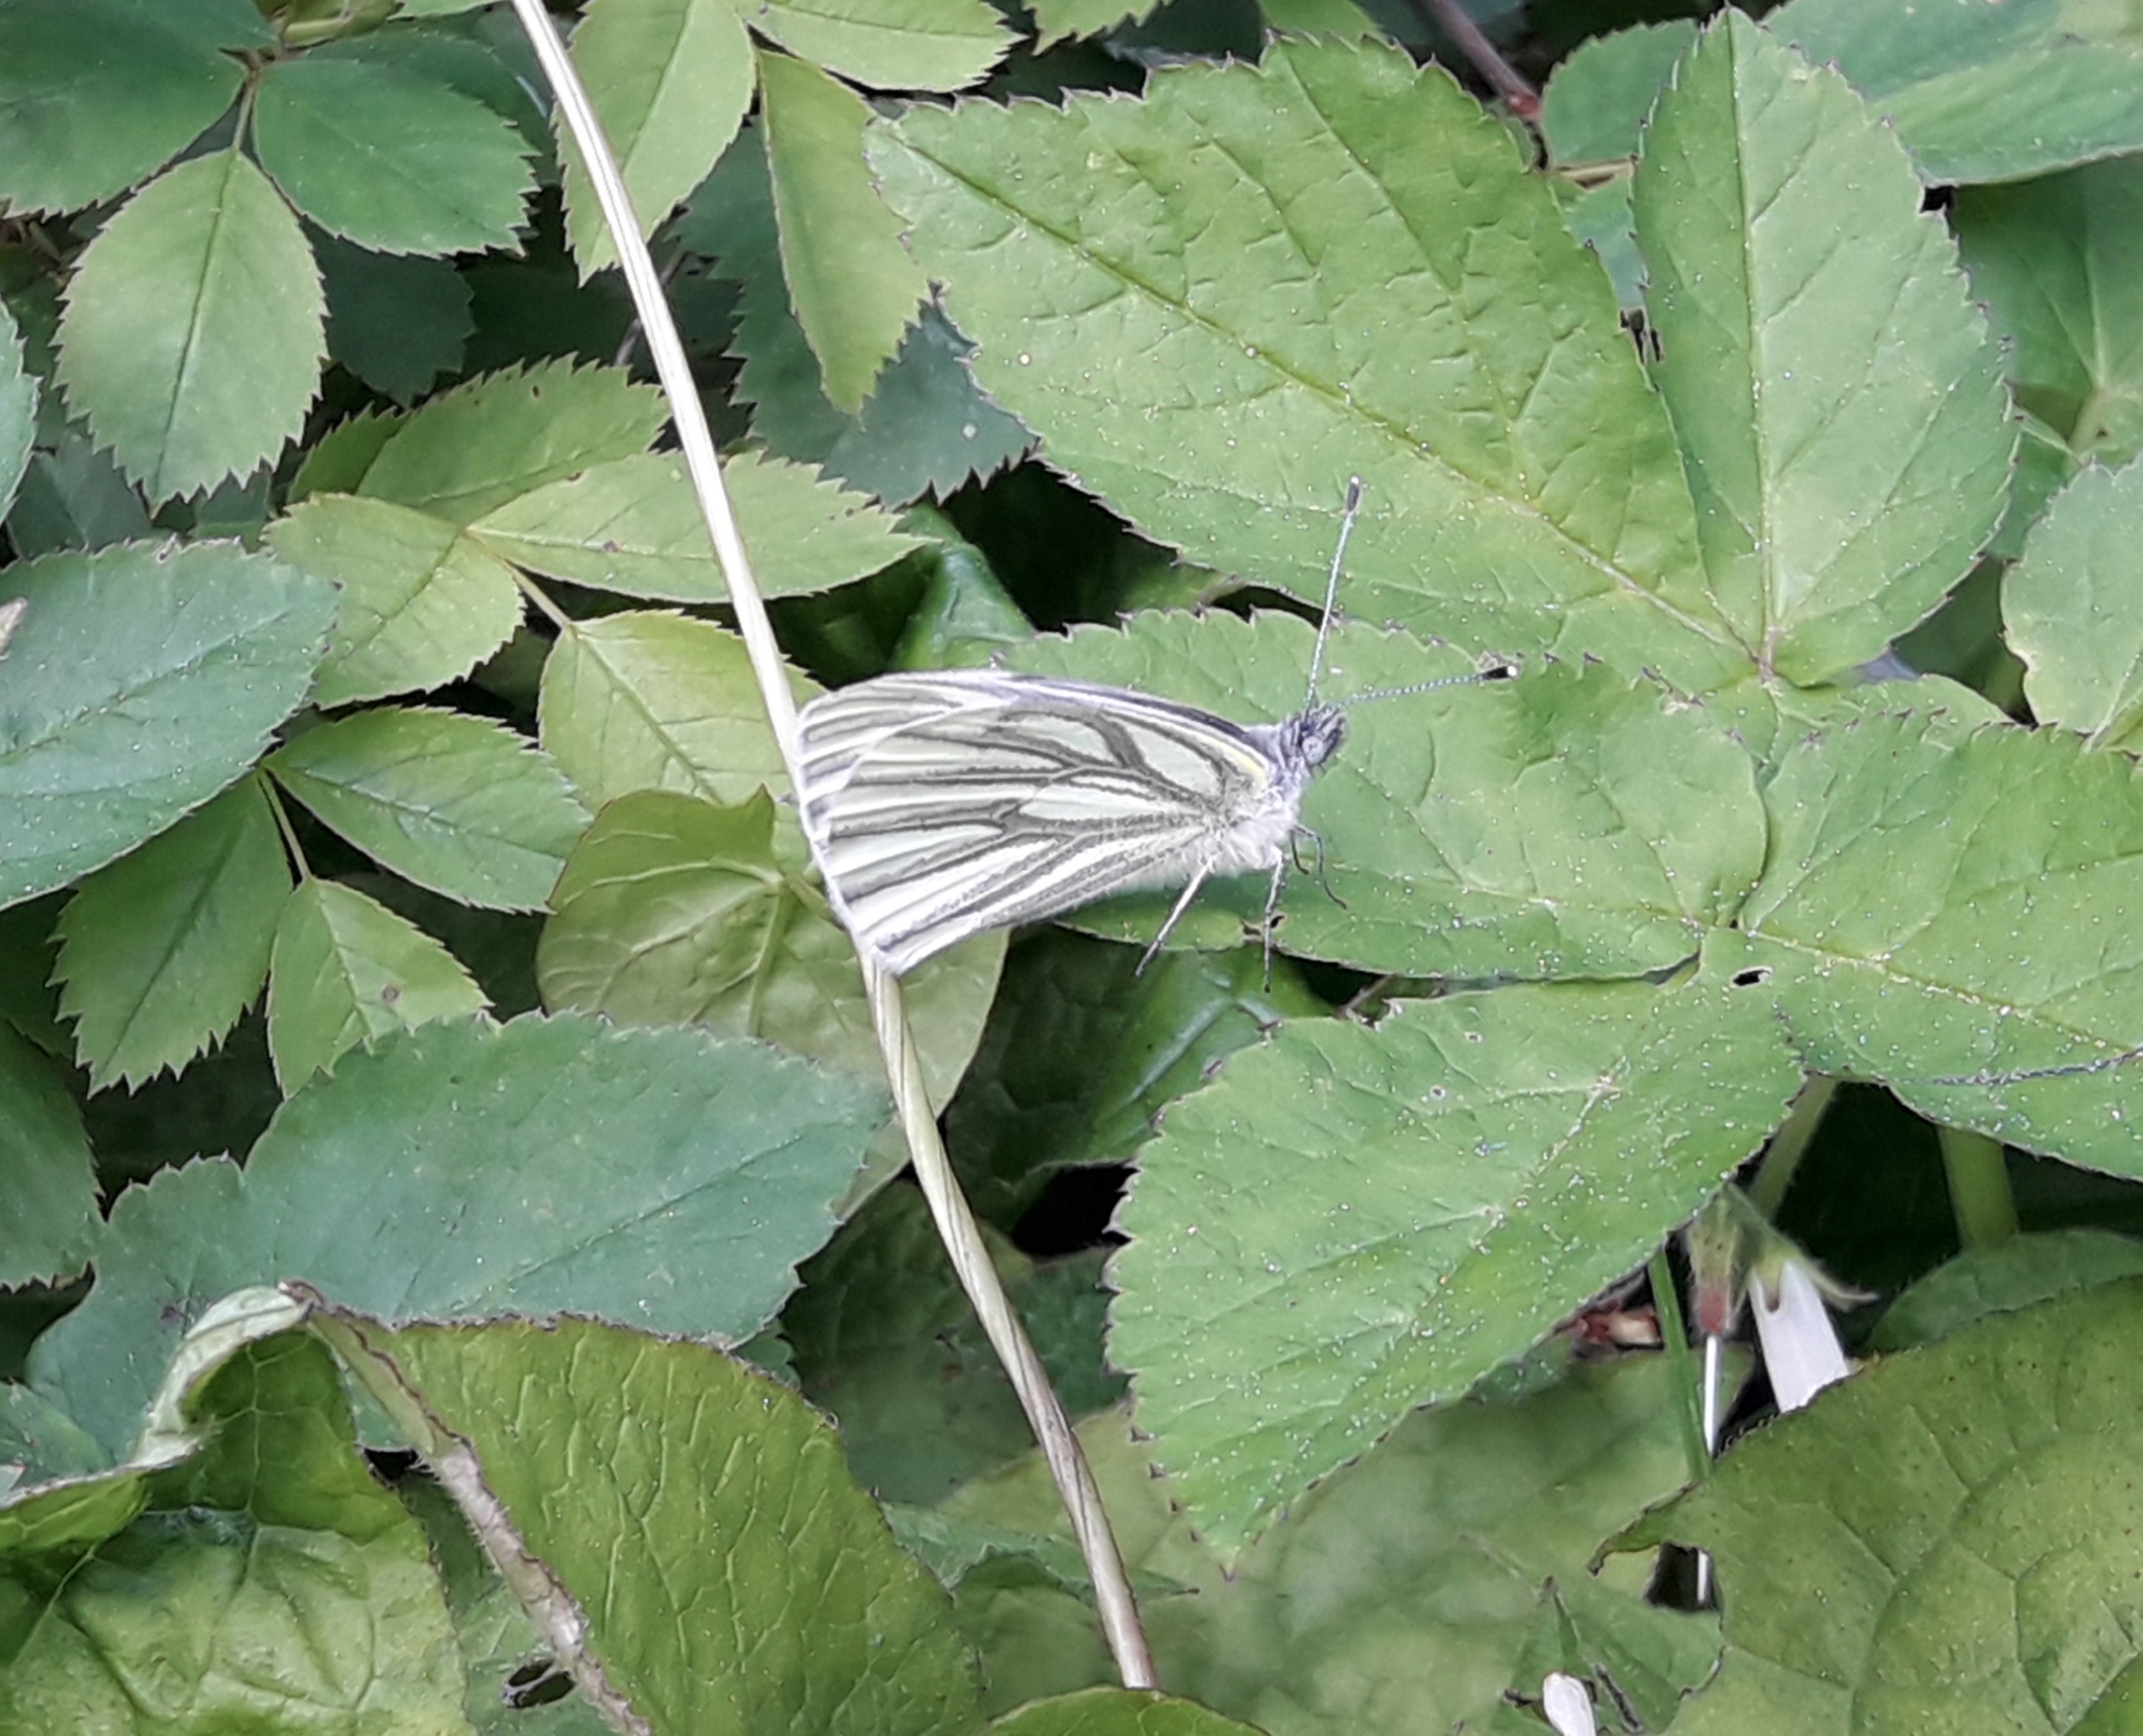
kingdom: Animalia
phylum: Arthropoda
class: Insecta
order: Lepidoptera
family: Pieridae
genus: Pieris
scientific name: Pieris napi
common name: Grønåret kålsommerfugl
